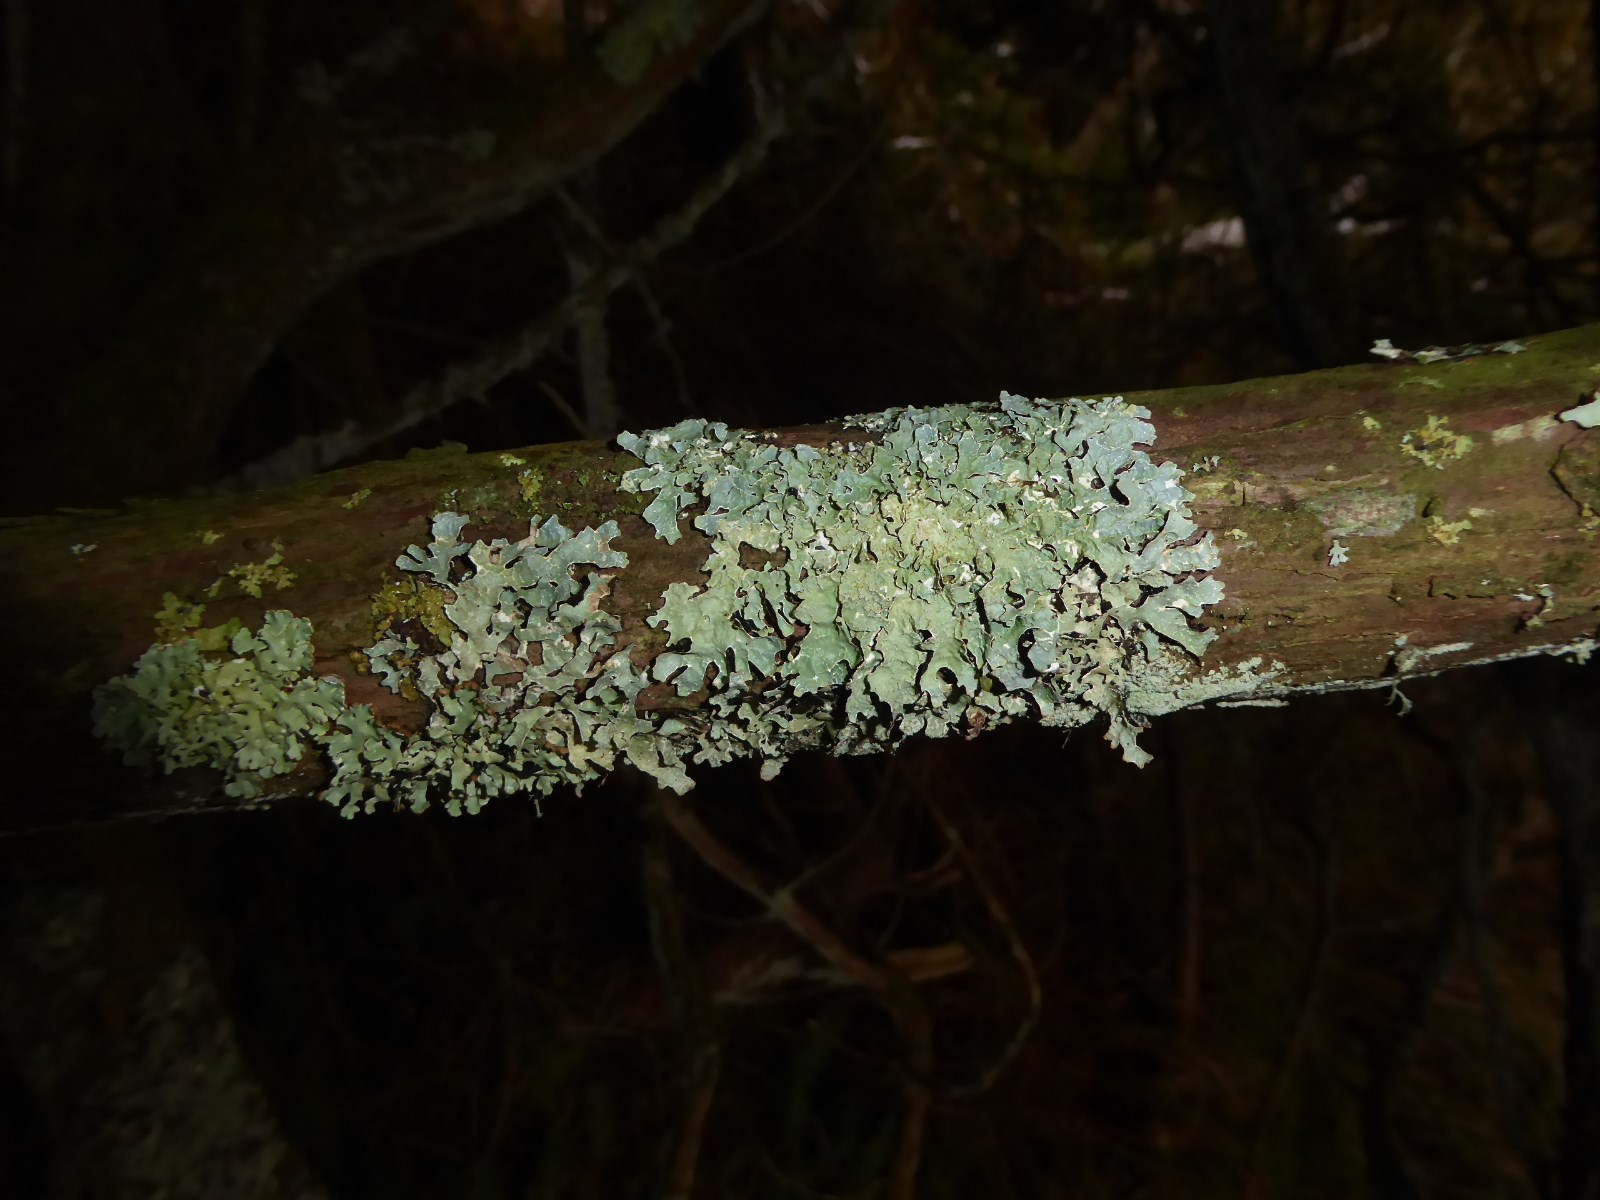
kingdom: Fungi
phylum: Ascomycota
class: Lecanoromycetes
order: Lecanorales
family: Parmeliaceae
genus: Parmelia
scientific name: Parmelia sulcata
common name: rynket skållav
